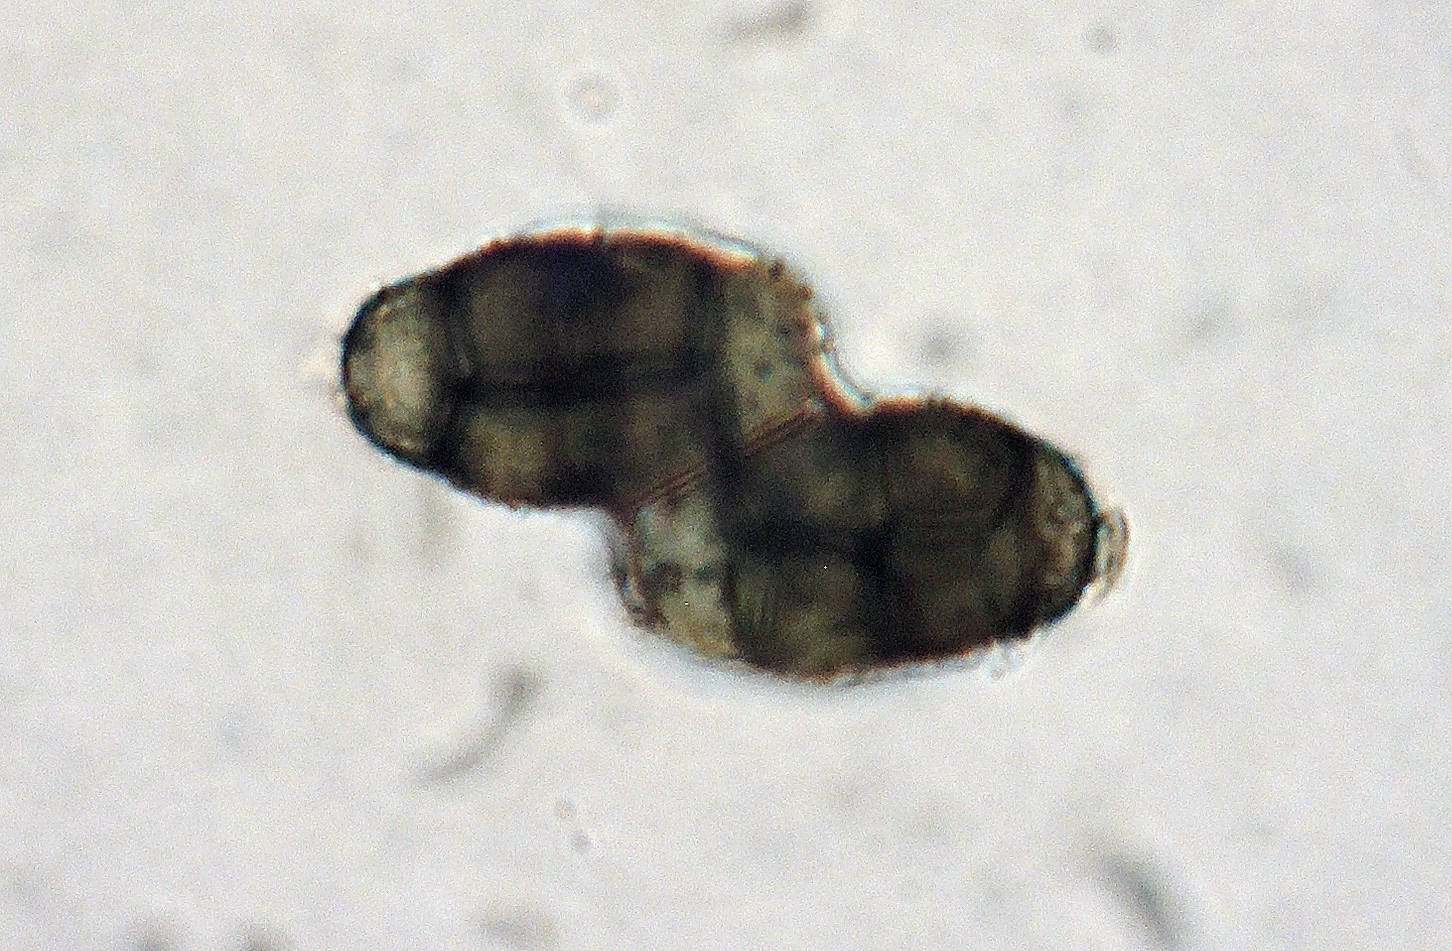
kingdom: Fungi
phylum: Ascomycota
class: Dothideomycetes
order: Pleosporales
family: Pleosporaceae
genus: Alternaria
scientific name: Alternaria botrytis
